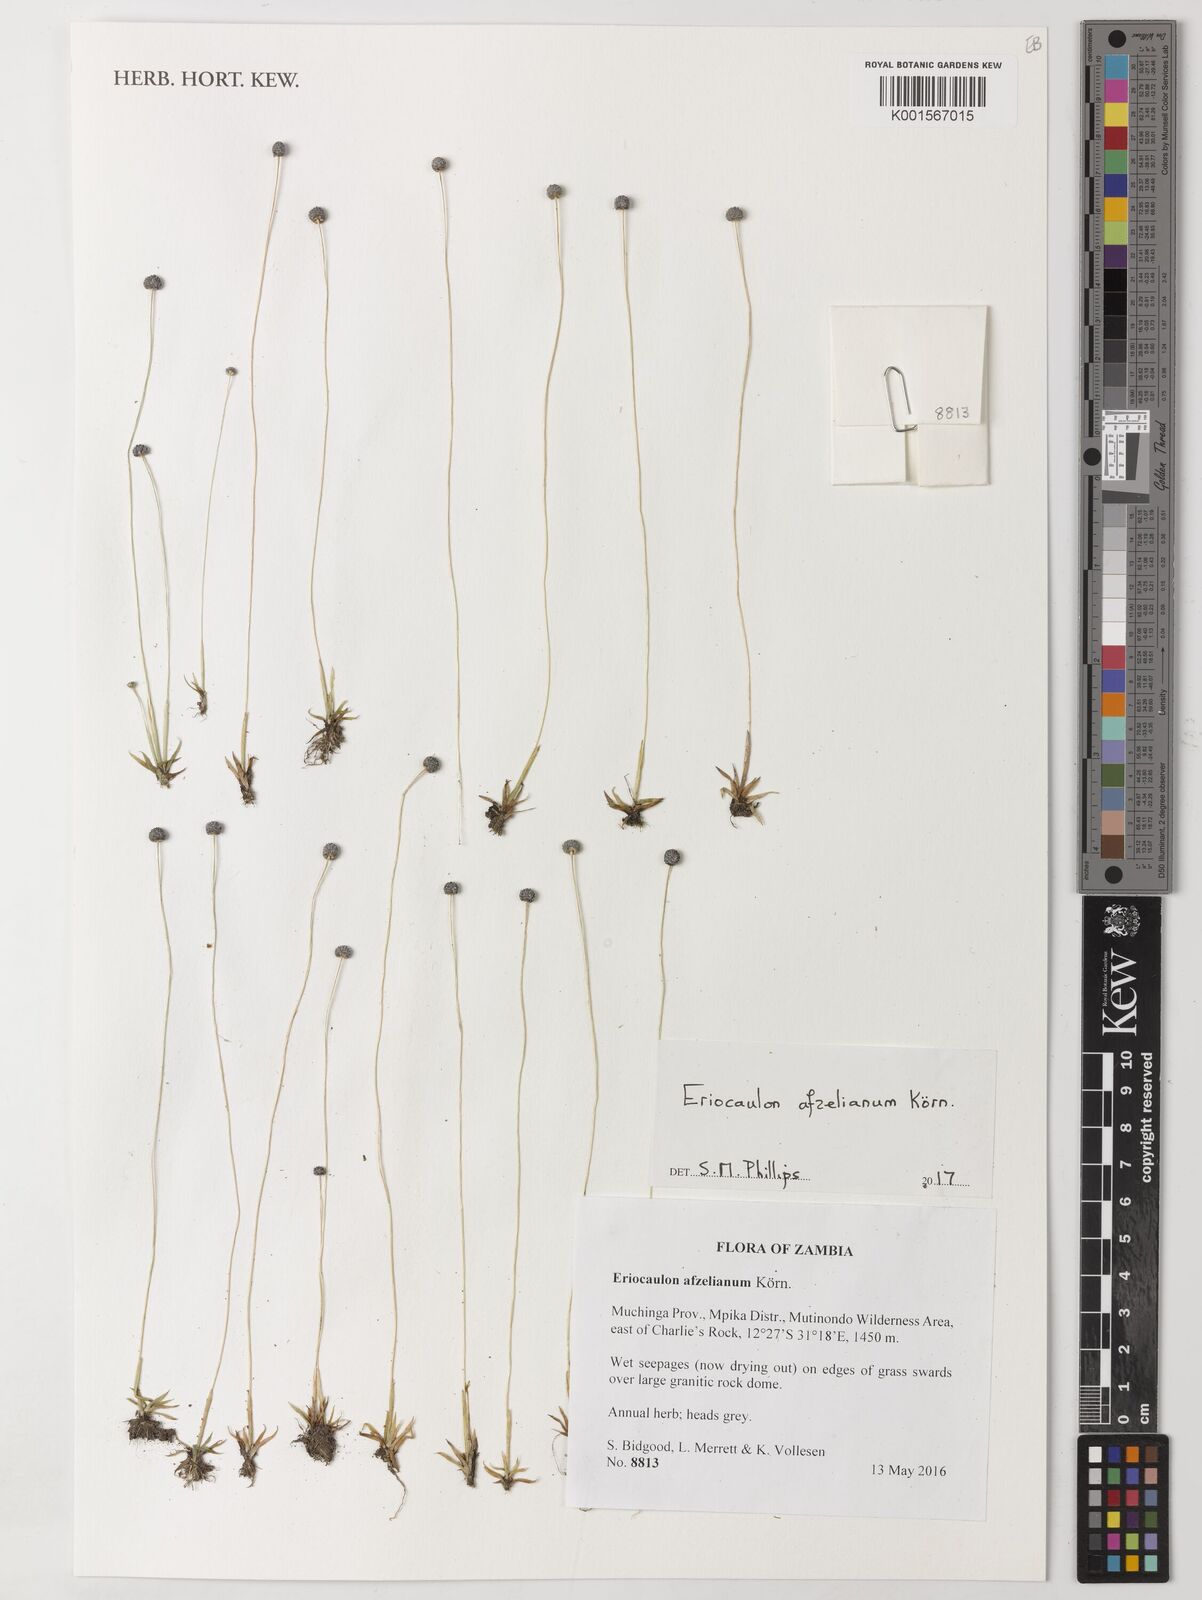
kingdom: Plantae
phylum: Tracheophyta
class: Liliopsida
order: Poales
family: Eriocaulaceae
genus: Eriocaulon
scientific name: Eriocaulon afzelianum
